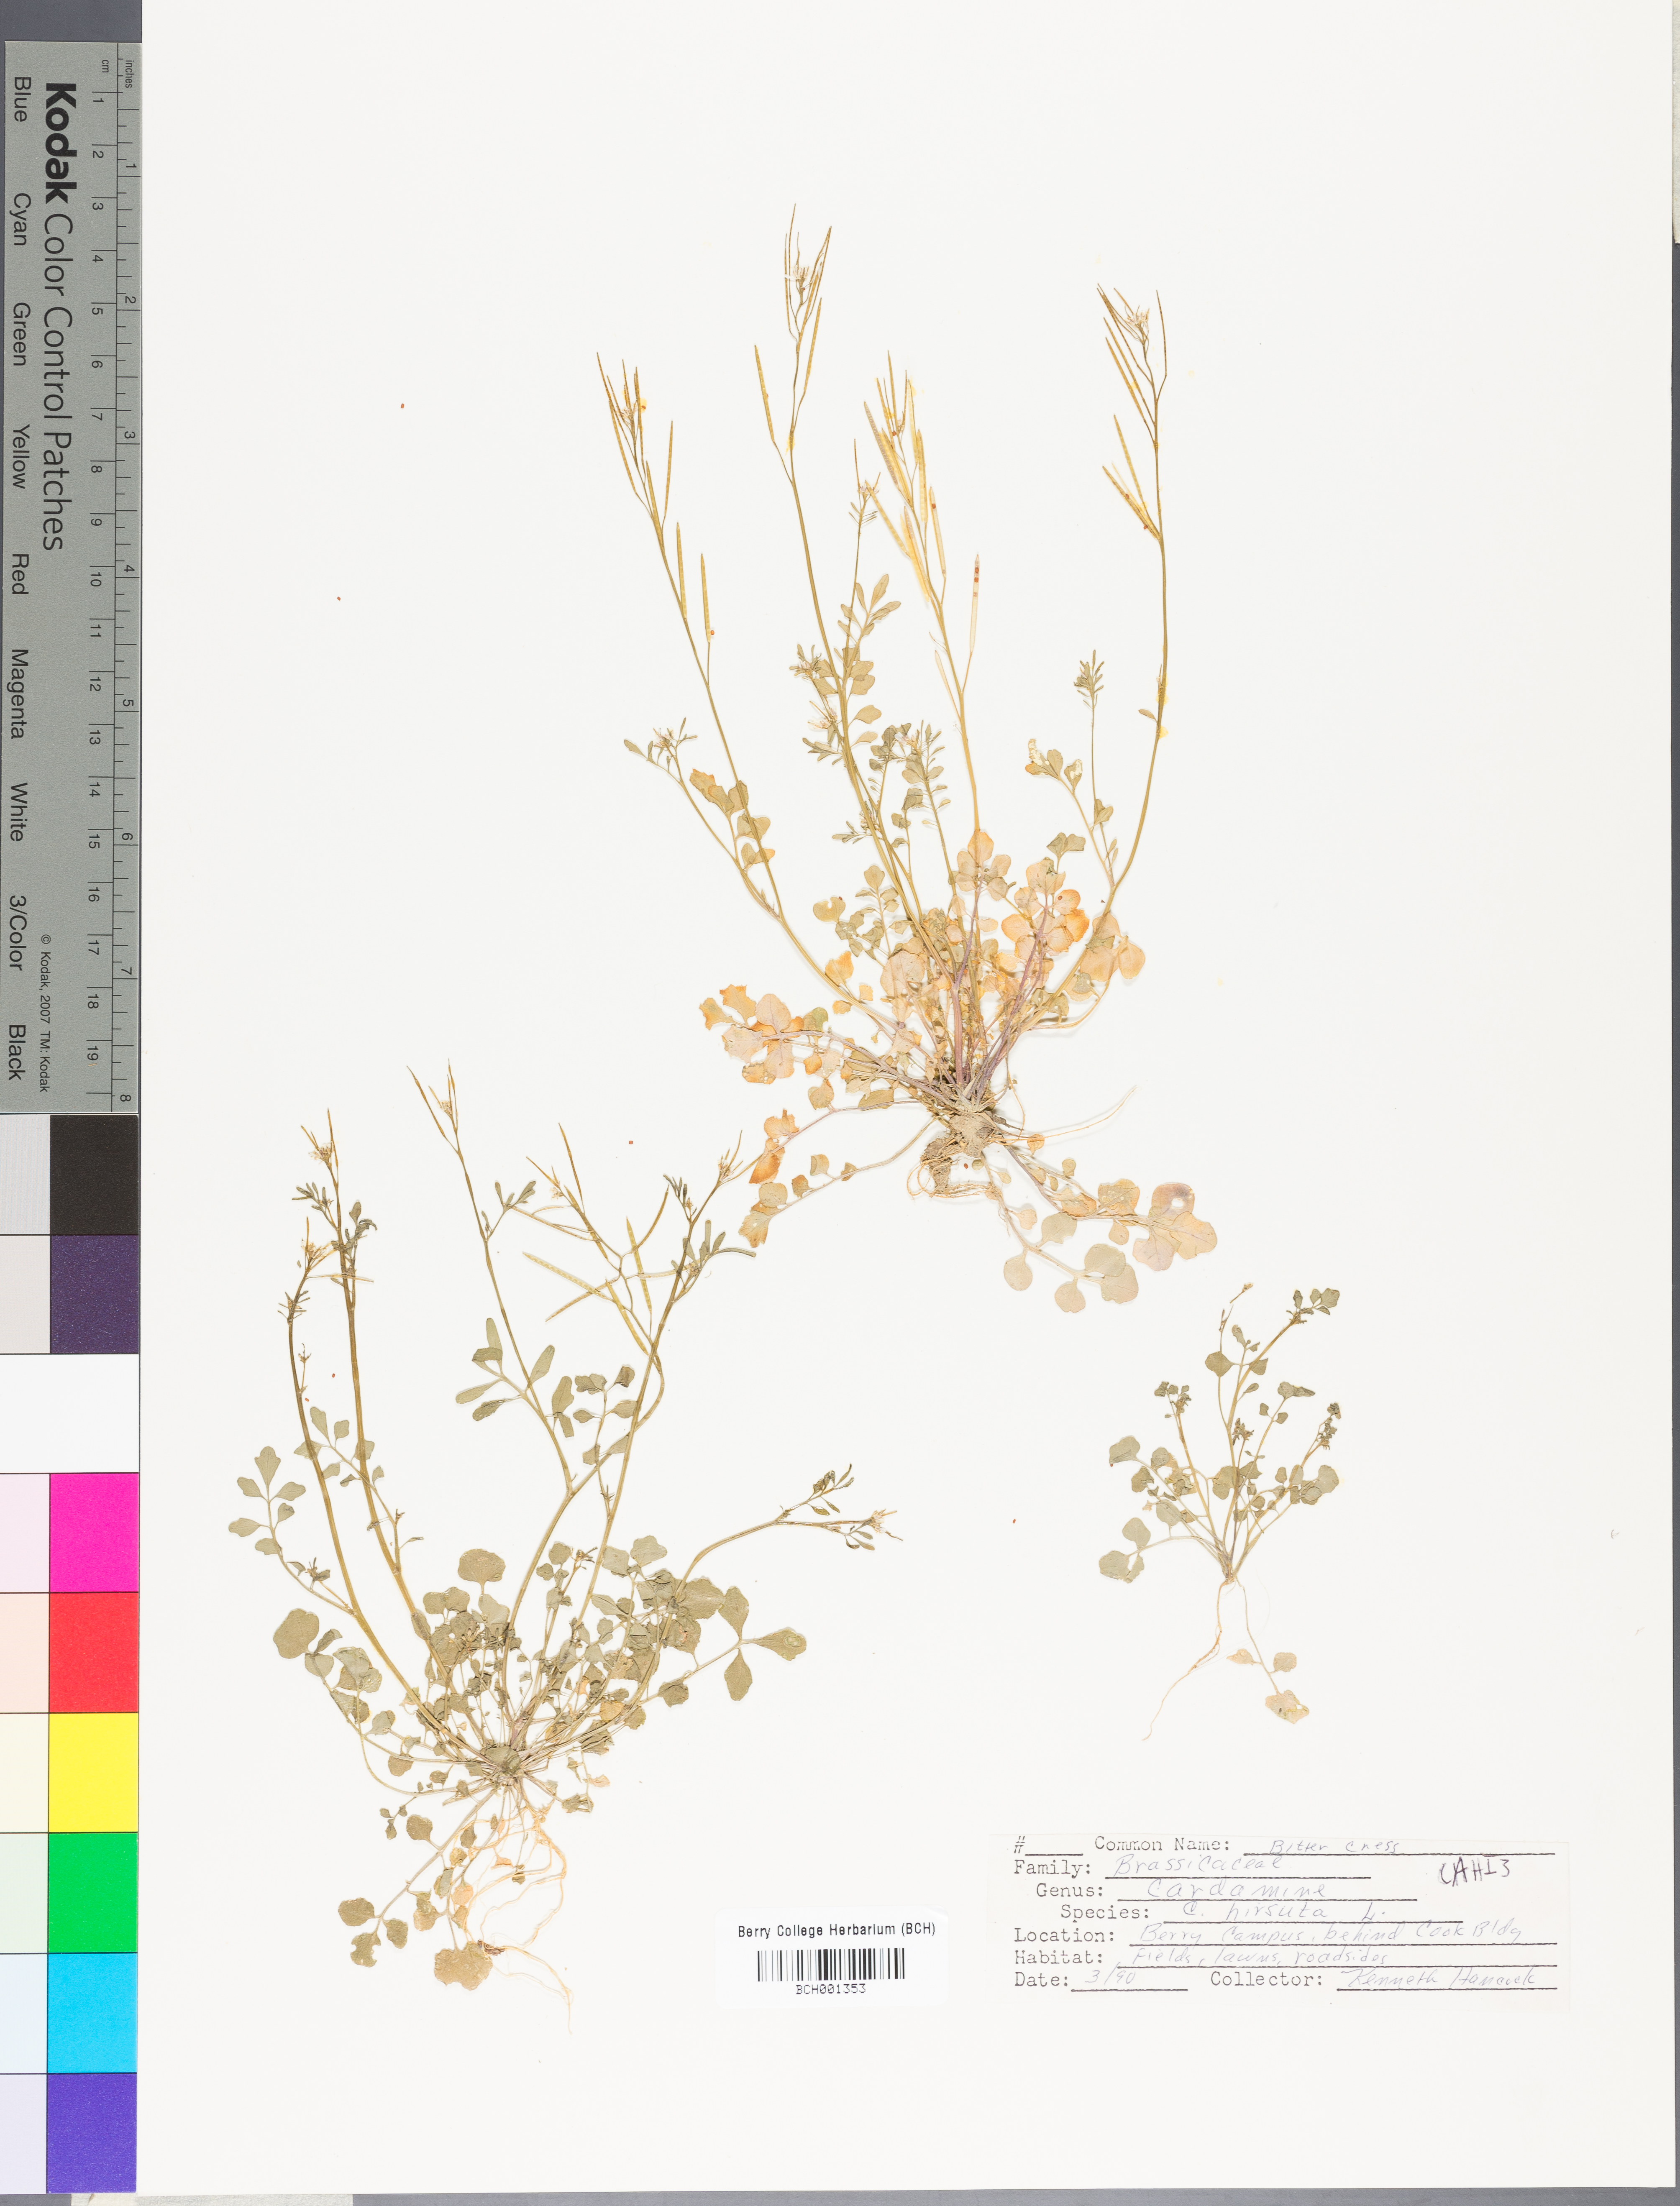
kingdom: Plantae
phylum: Tracheophyta
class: Magnoliopsida
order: Brassicales
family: Brassicaceae
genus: Cardamine
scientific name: Cardamine hirsuta
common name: Hairy bittercress
